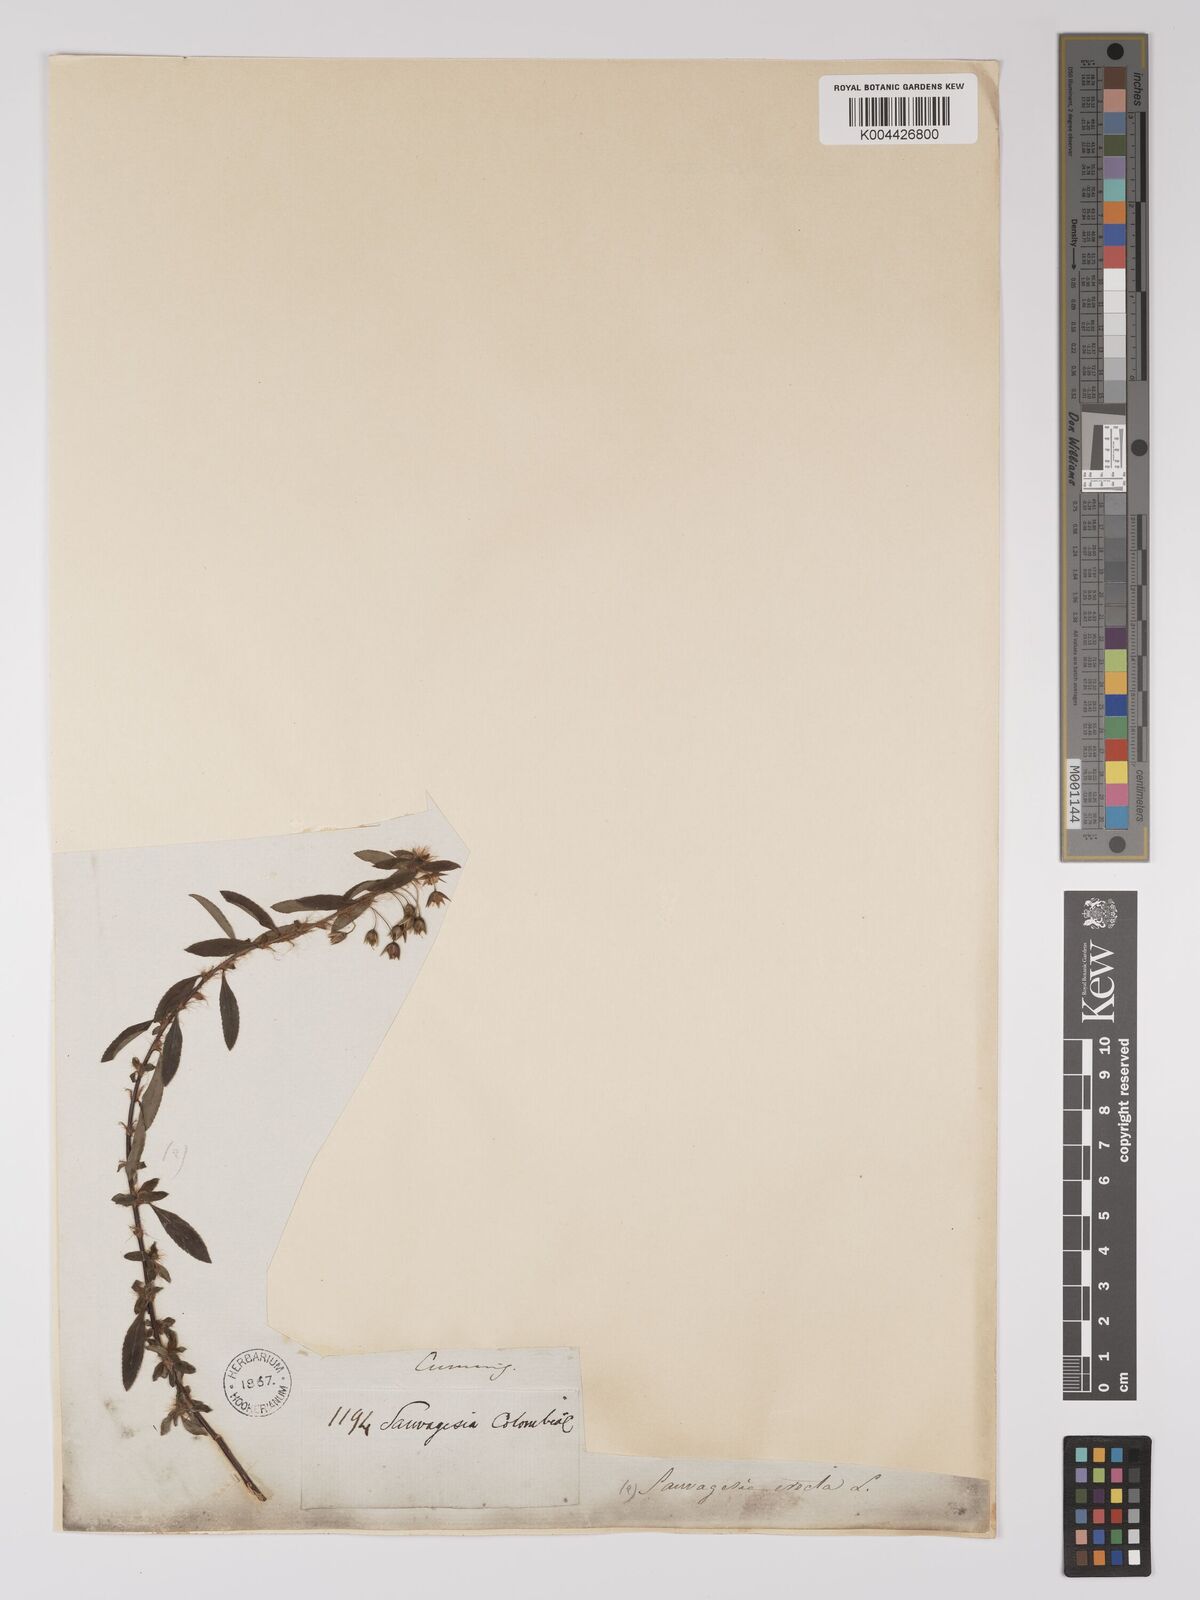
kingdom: Plantae
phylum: Tracheophyta
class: Magnoliopsida
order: Malpighiales
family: Ochnaceae
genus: Sauvagesia
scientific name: Sauvagesia erecta
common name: Creole tea
